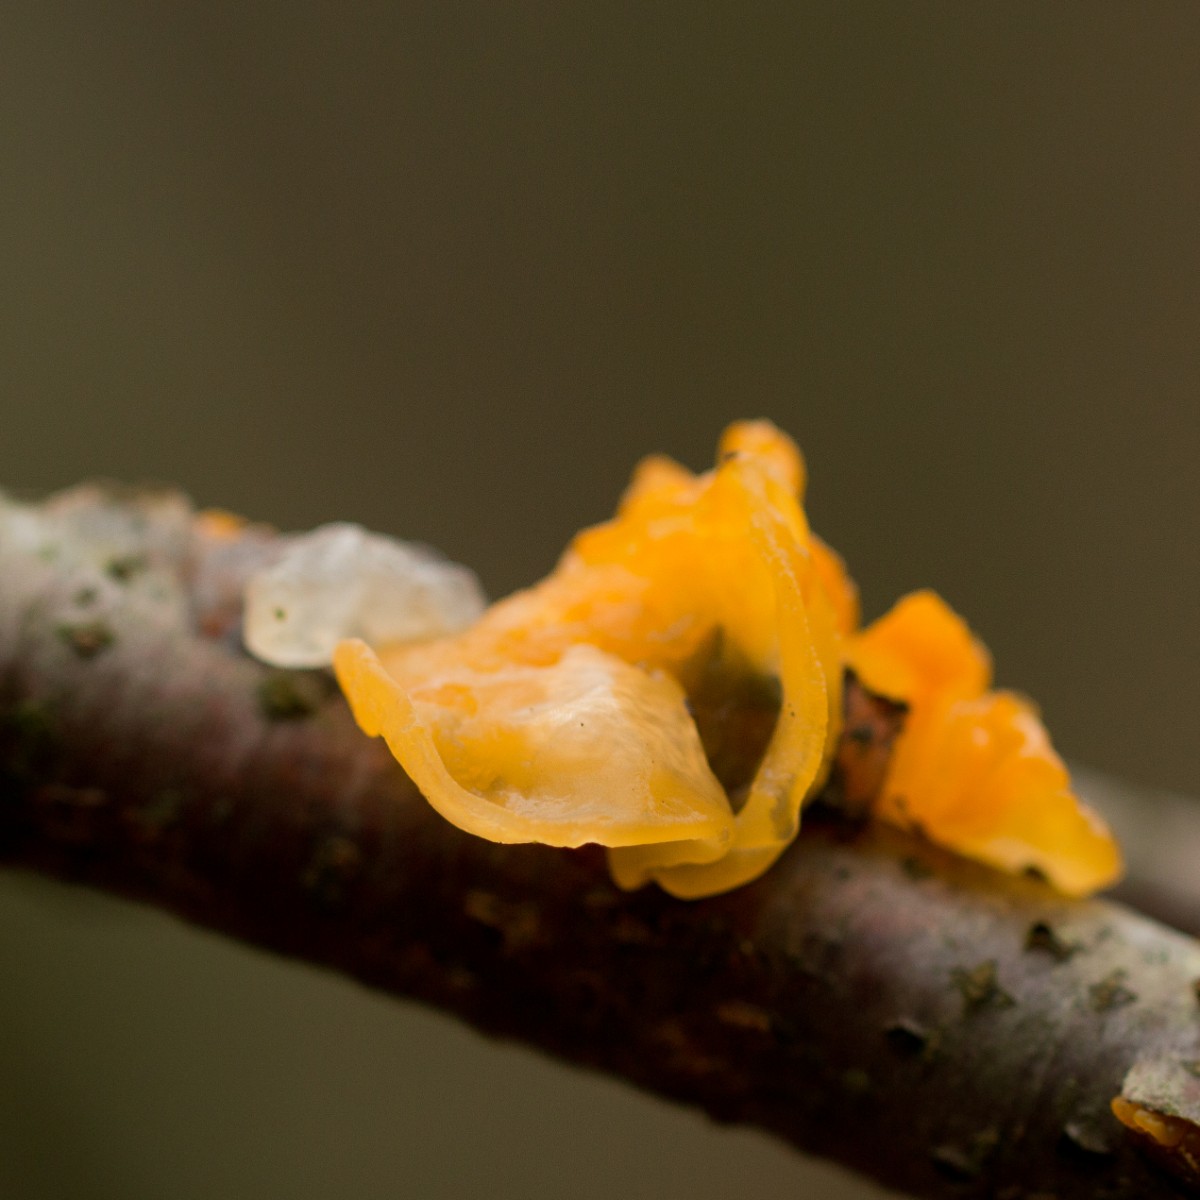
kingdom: Fungi
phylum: Basidiomycota
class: Tremellomycetes
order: Tremellales
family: Tremellaceae
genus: Tremella
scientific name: Tremella mesenterica
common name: gul bævresvamp
